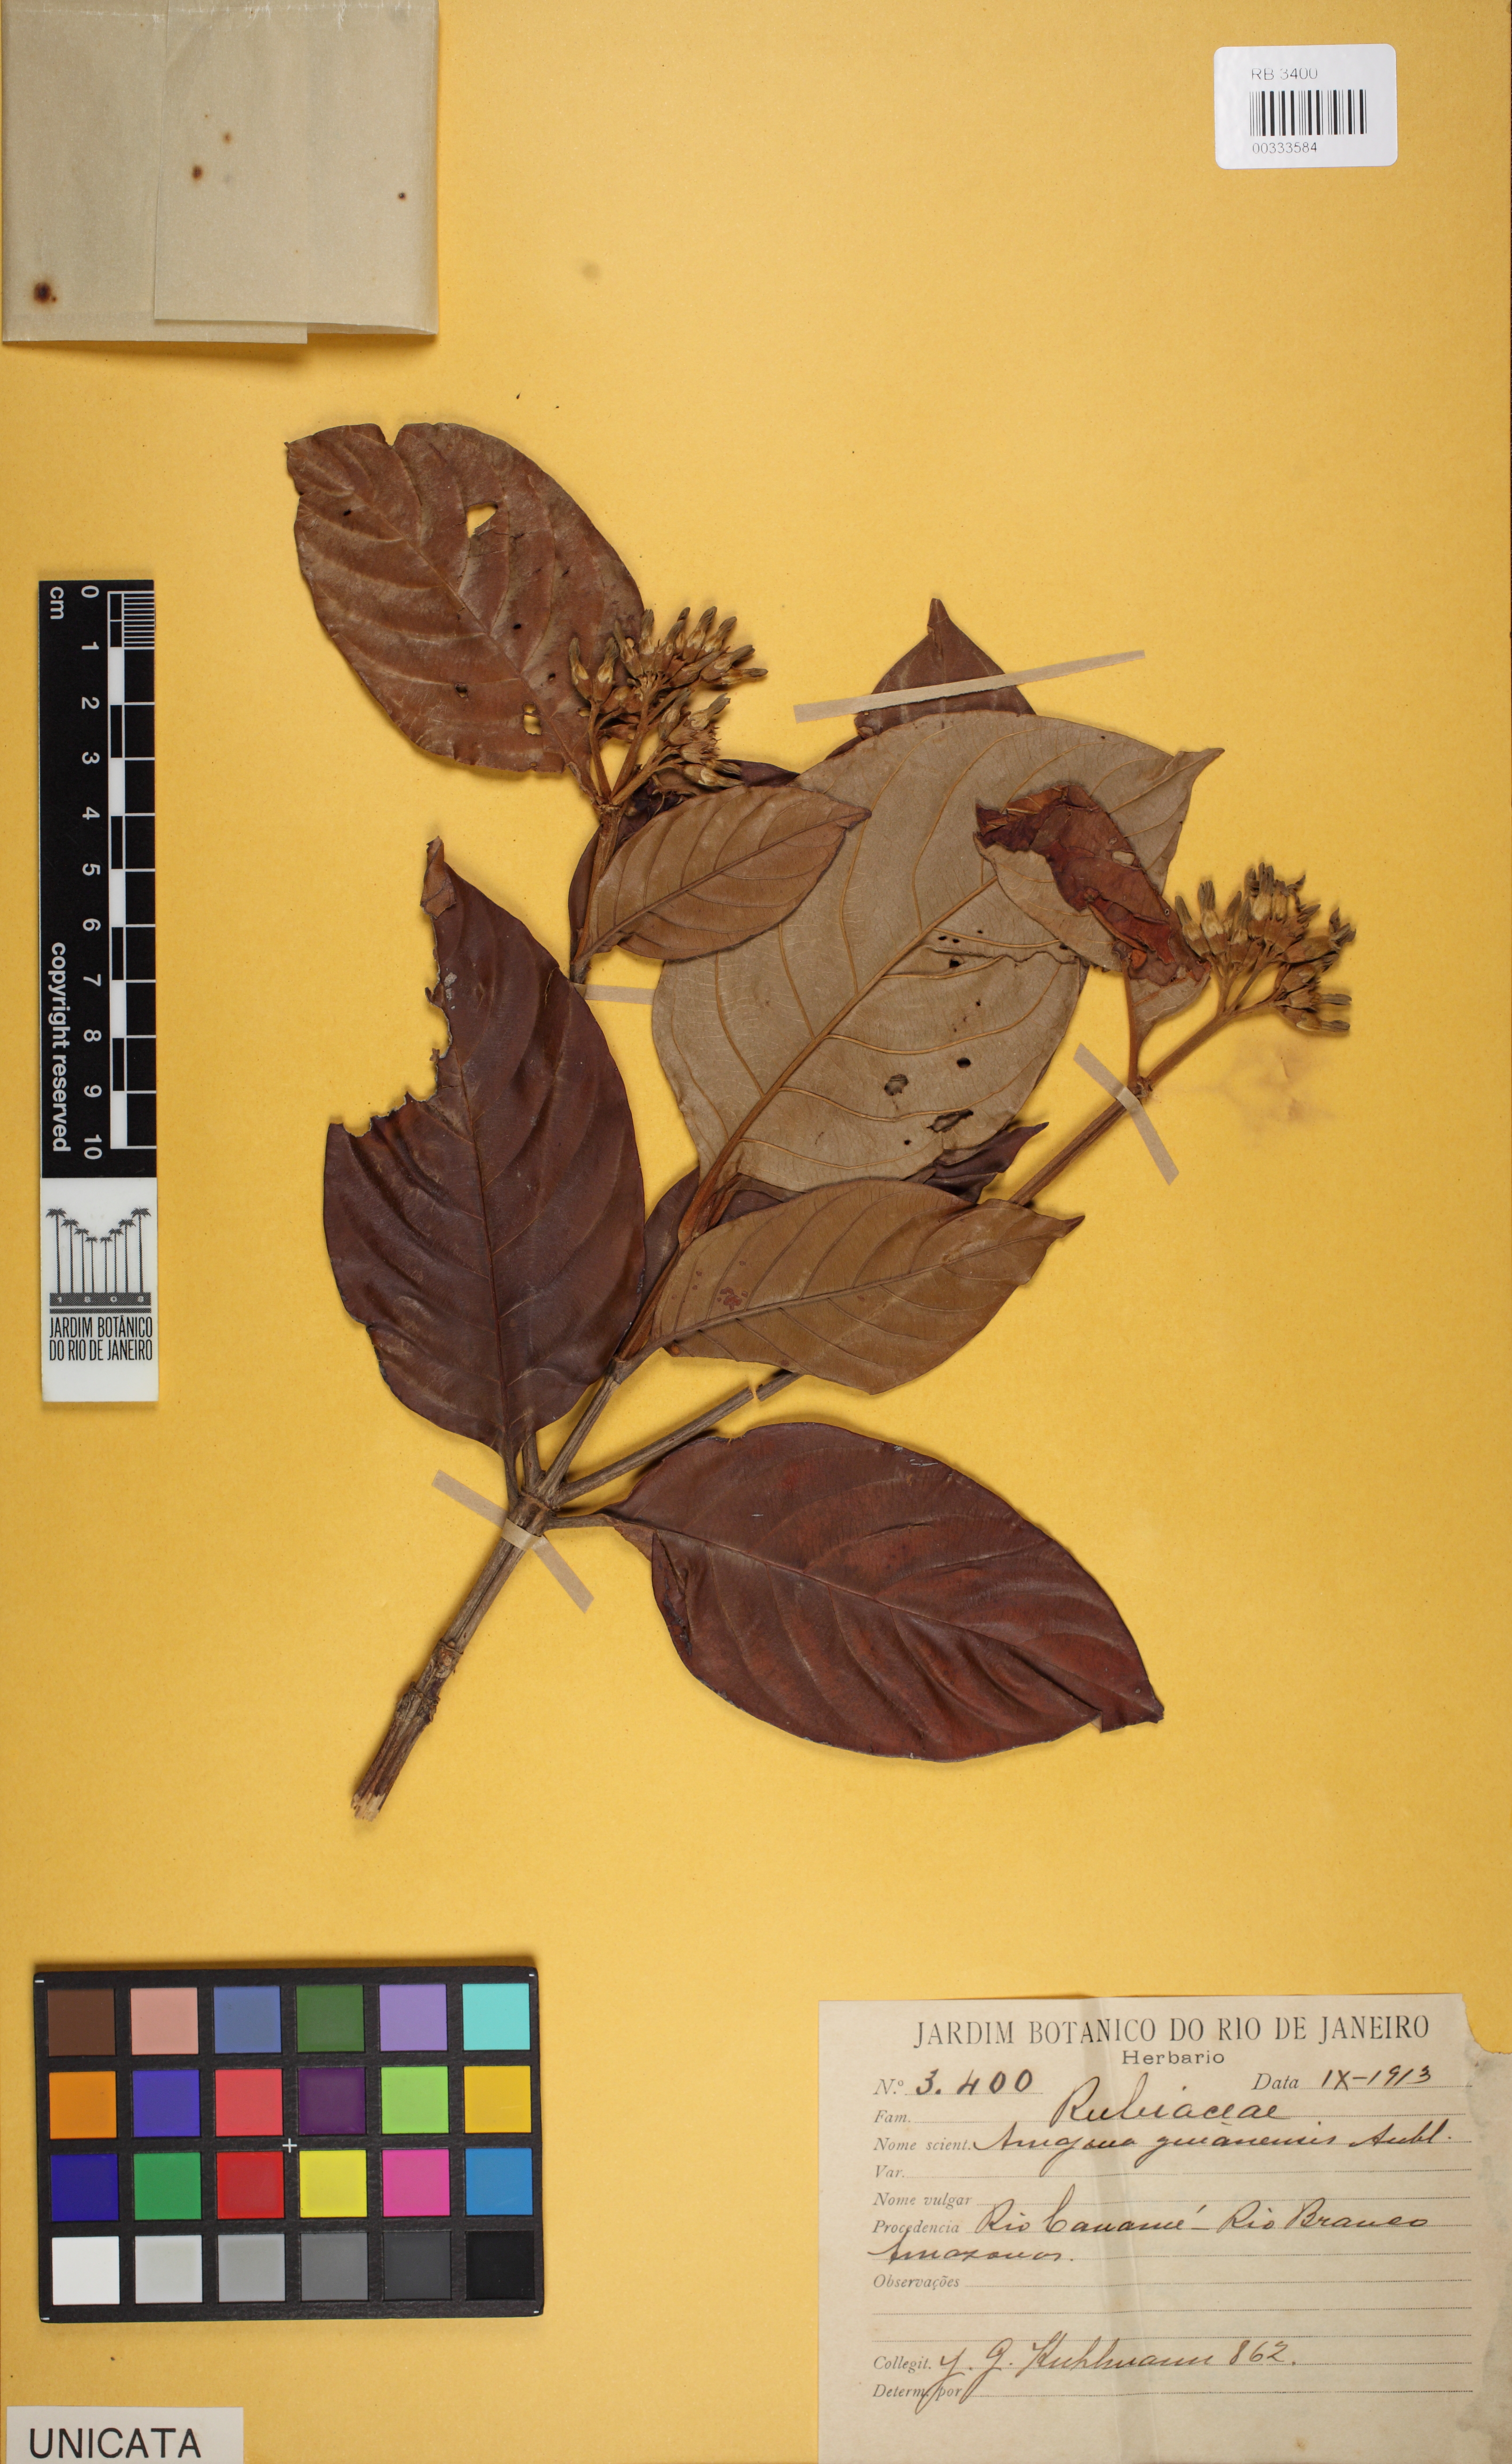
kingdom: Plantae
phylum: Tracheophyta
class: Magnoliopsida
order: Gentianales
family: Rubiaceae
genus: Amaioua
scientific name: Amaioua glomerulata
